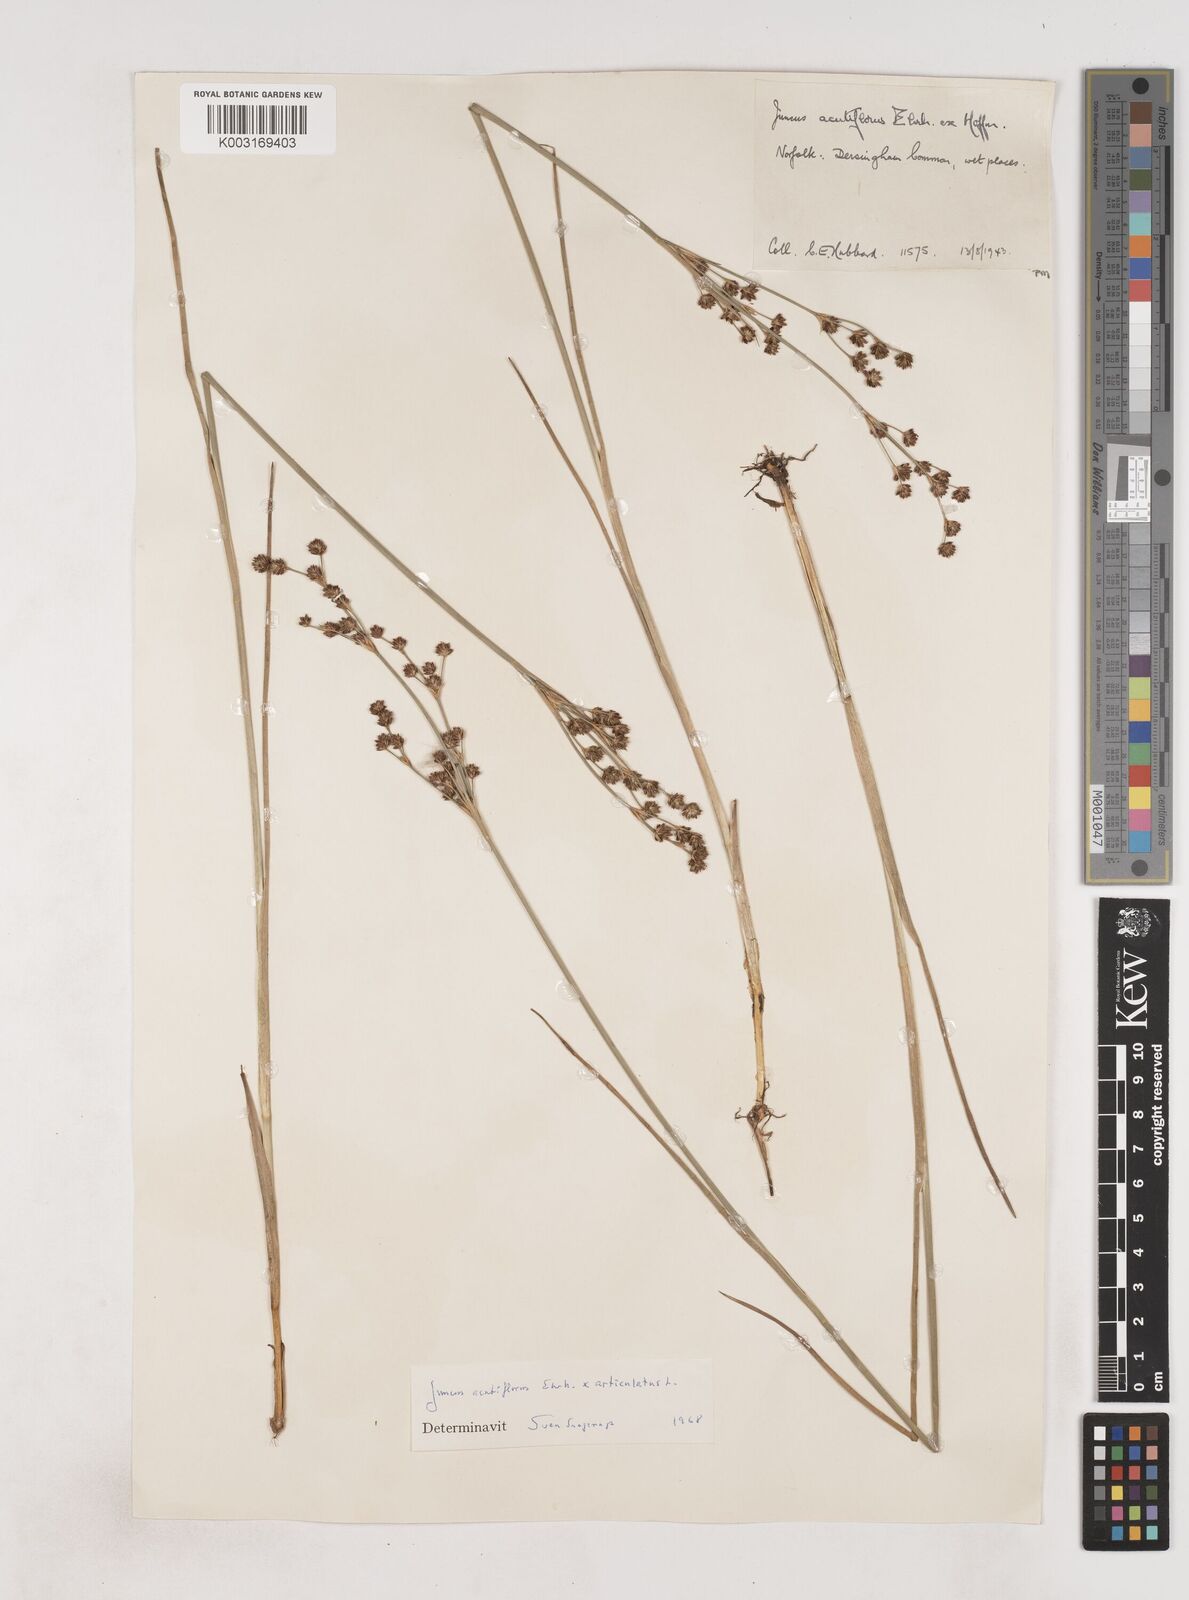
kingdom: Plantae
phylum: Tracheophyta
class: Liliopsida
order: Poales
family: Juncaceae
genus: Juncus
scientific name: Juncus acutiflorus
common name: Sharp-flowered rush
